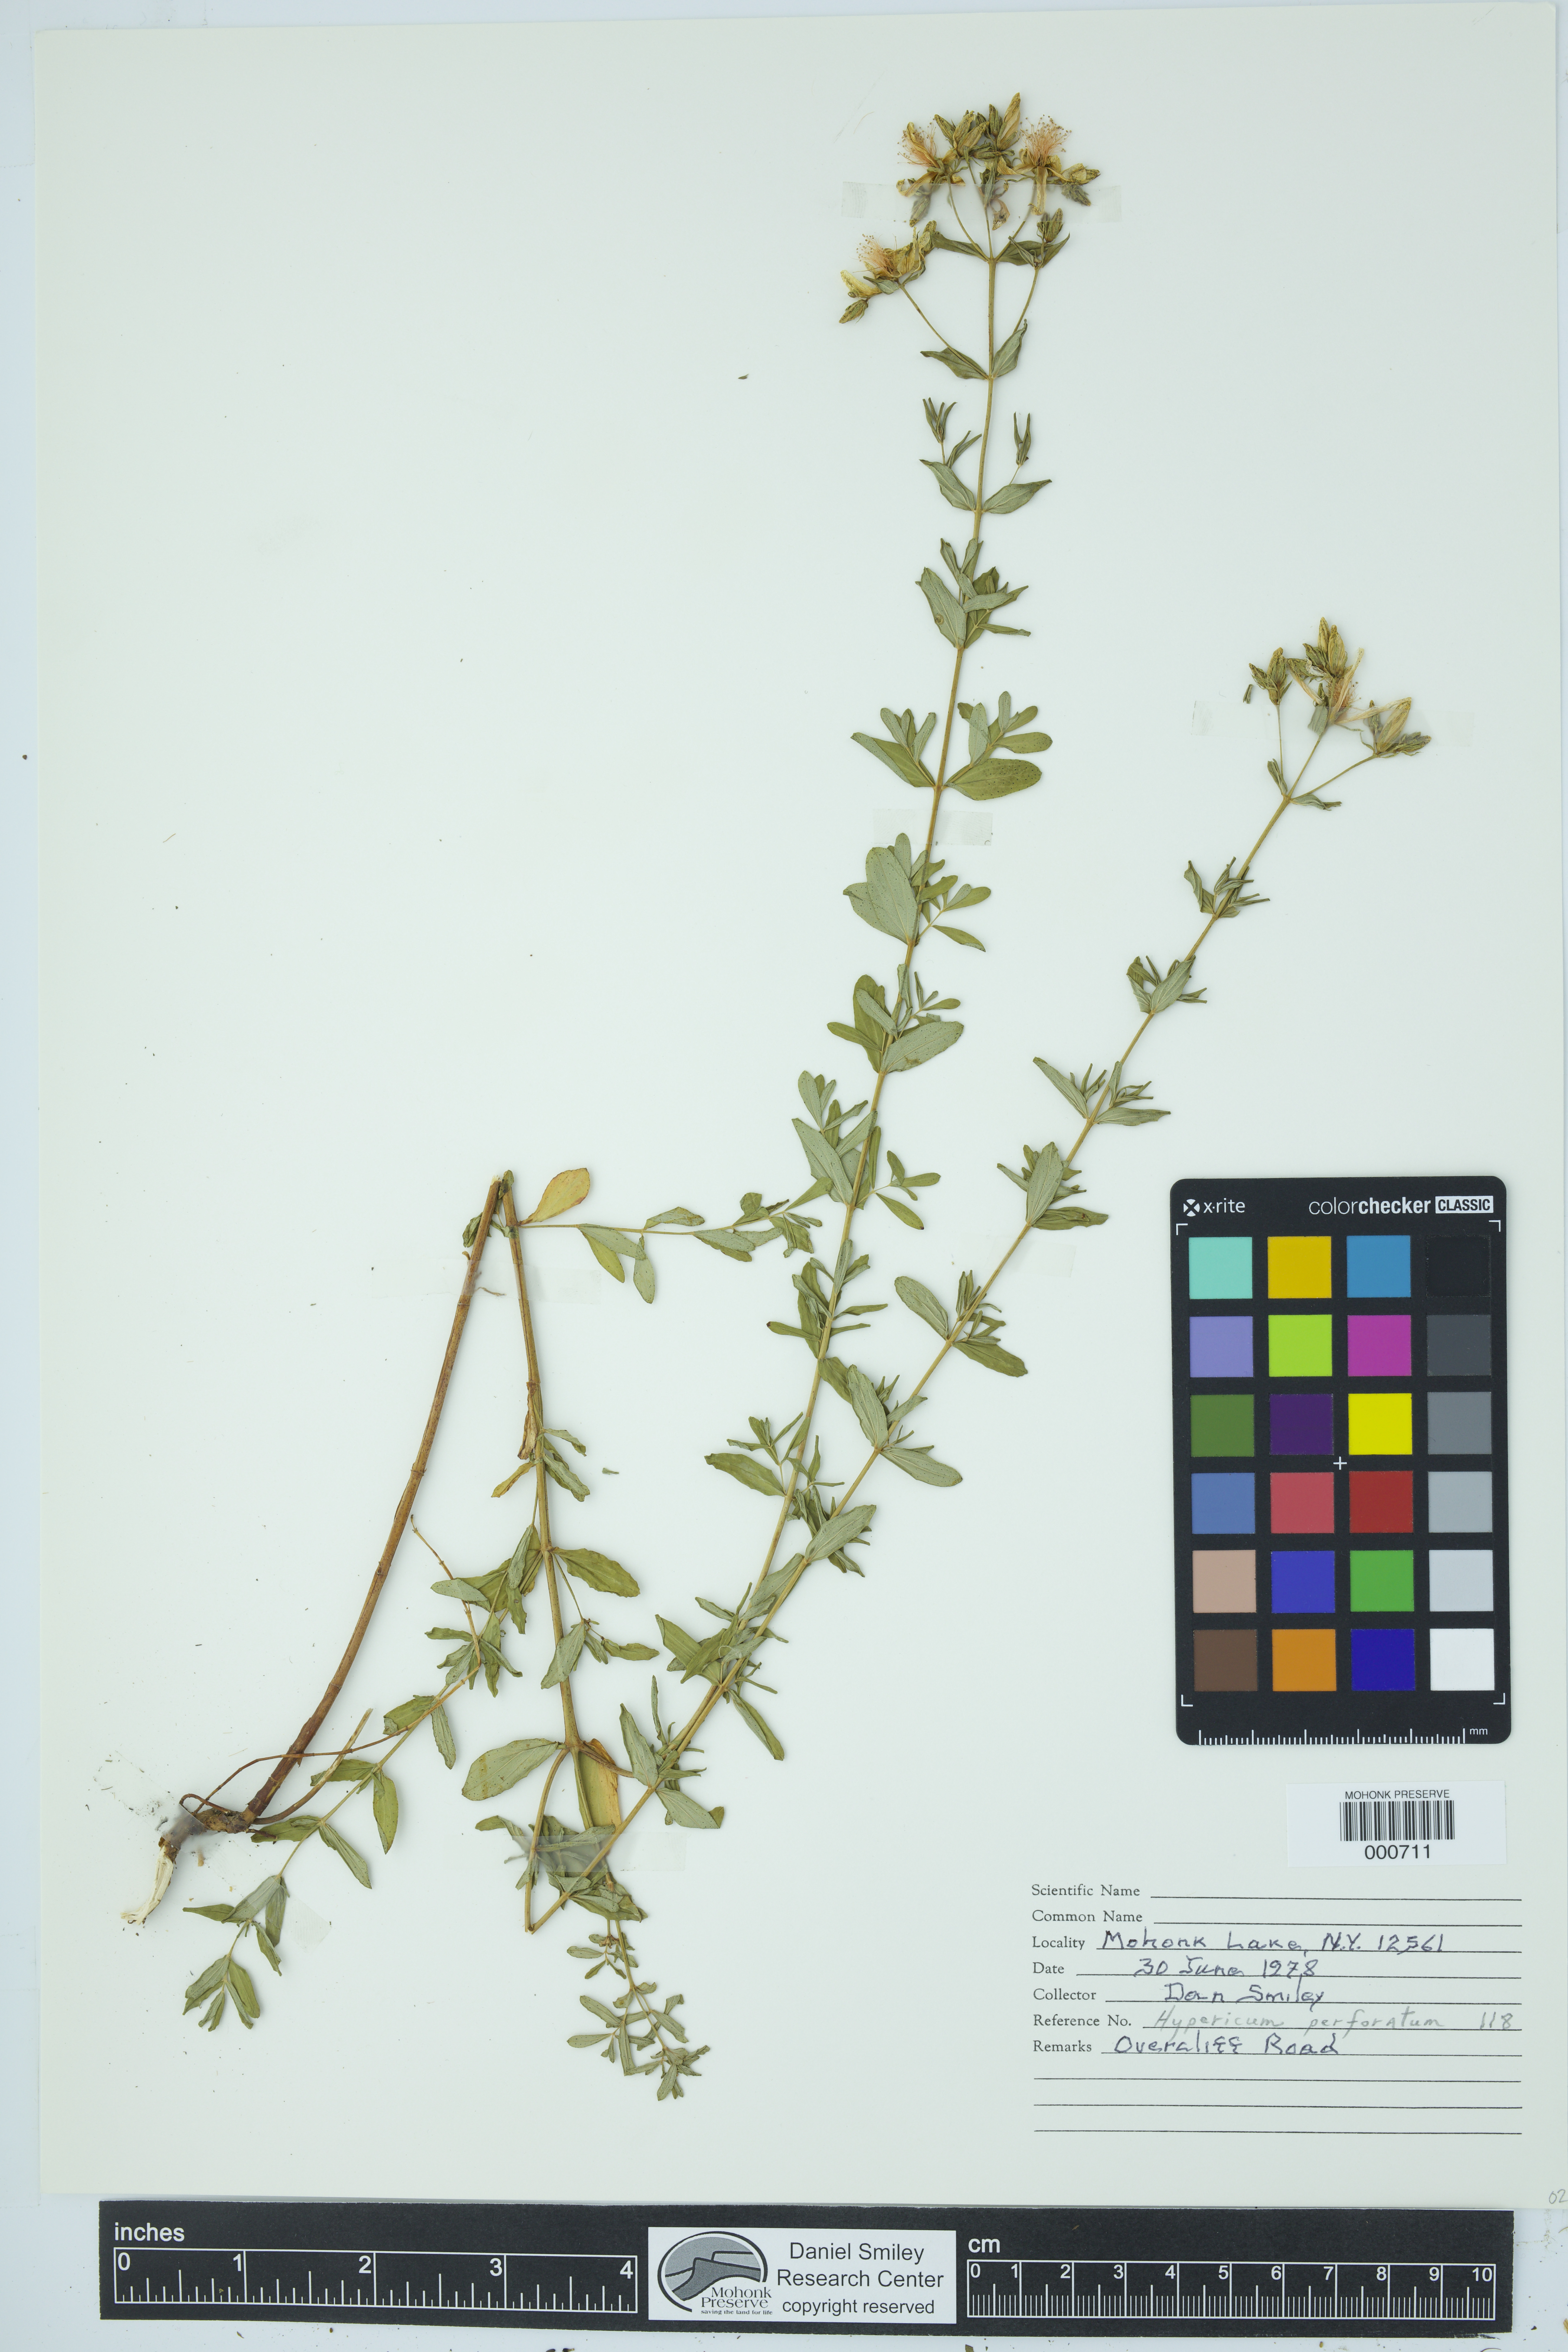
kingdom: Plantae
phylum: Tracheophyta
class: Magnoliopsida
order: Malpighiales
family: Hypericaceae
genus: Hypericum
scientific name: Hypericum perforatum
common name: Common st. johnswort
